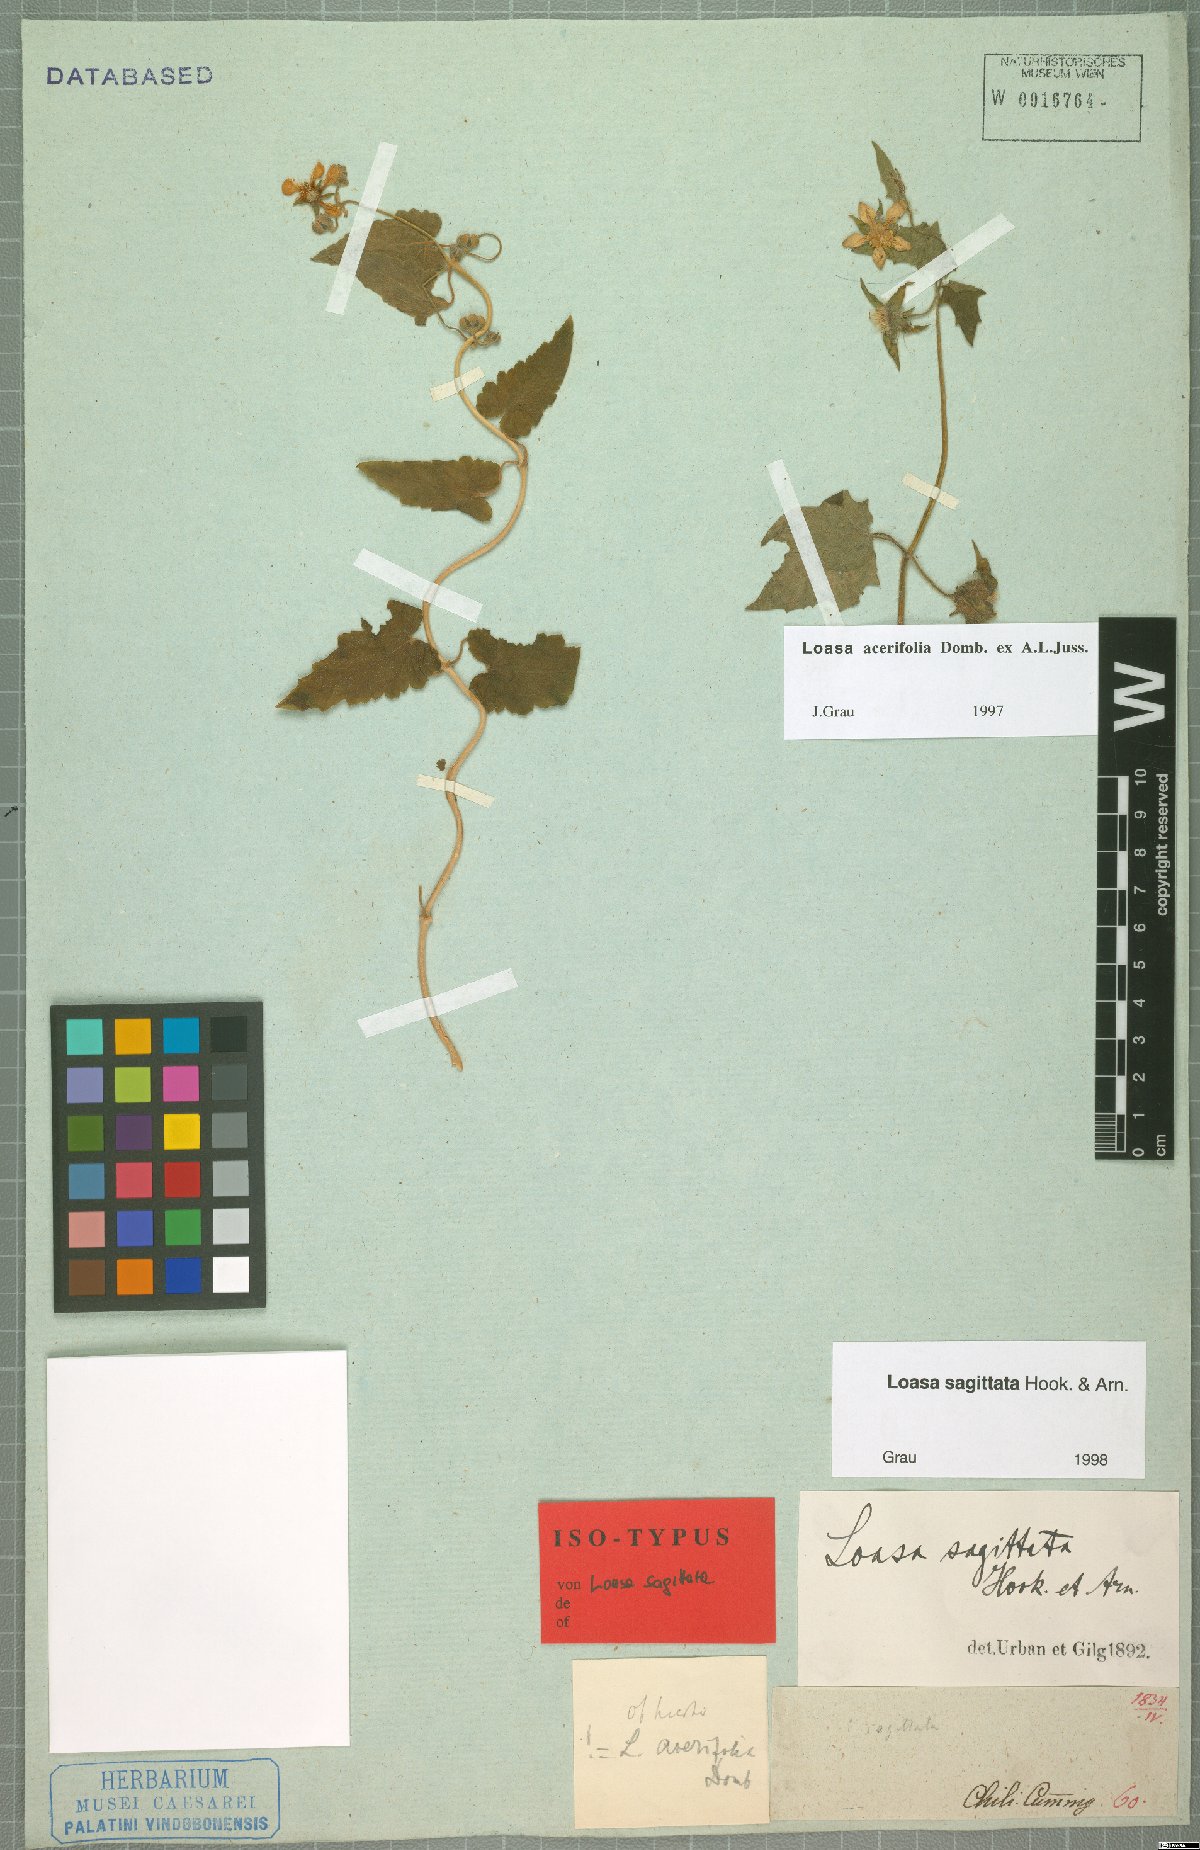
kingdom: Plantae
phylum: Tracheophyta
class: Magnoliopsida
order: Cornales
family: Loasaceae
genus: Grausa
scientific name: Grausa sagittata
